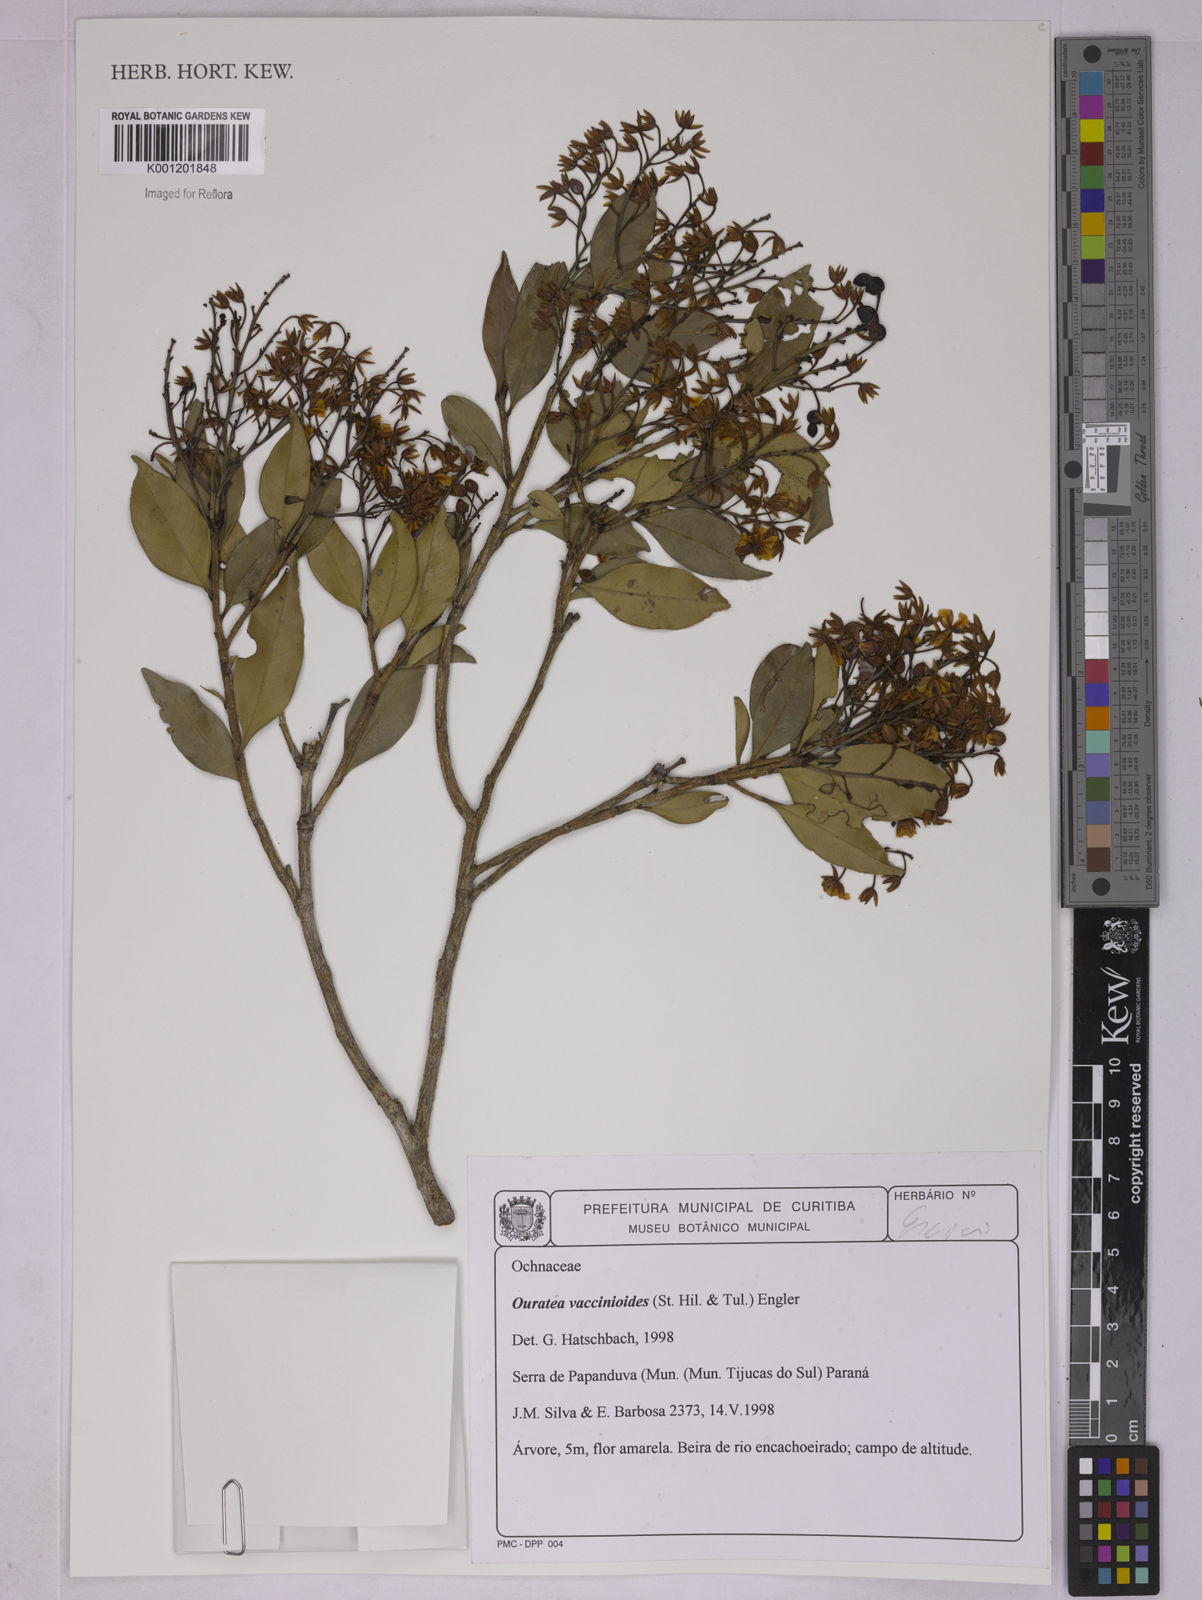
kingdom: Plantae
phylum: Tracheophyta
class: Magnoliopsida
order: Malpighiales
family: Ochnaceae
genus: Ouratea
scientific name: Ouratea vaccinioides
